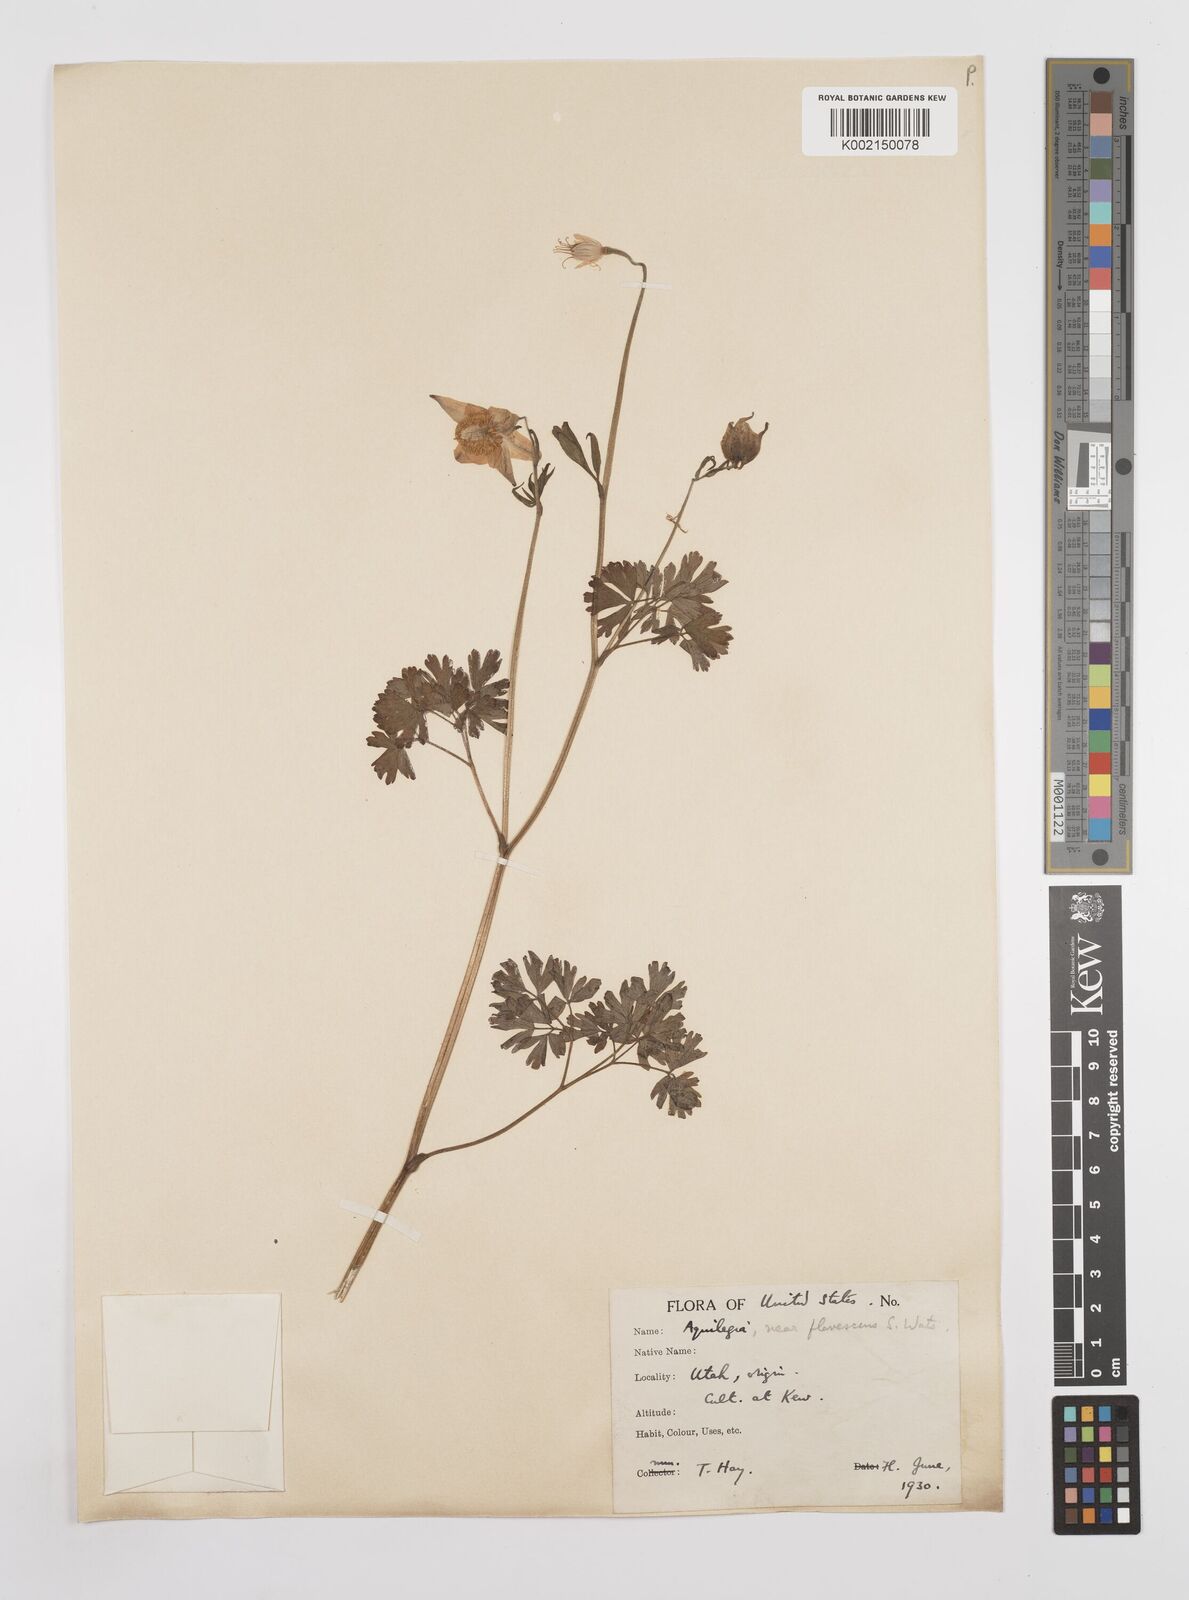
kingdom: Plantae
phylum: Tracheophyta
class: Magnoliopsida
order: Ranunculales
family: Ranunculaceae
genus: Aquilegia
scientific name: Aquilegia flavescens
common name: Yellow columbine
